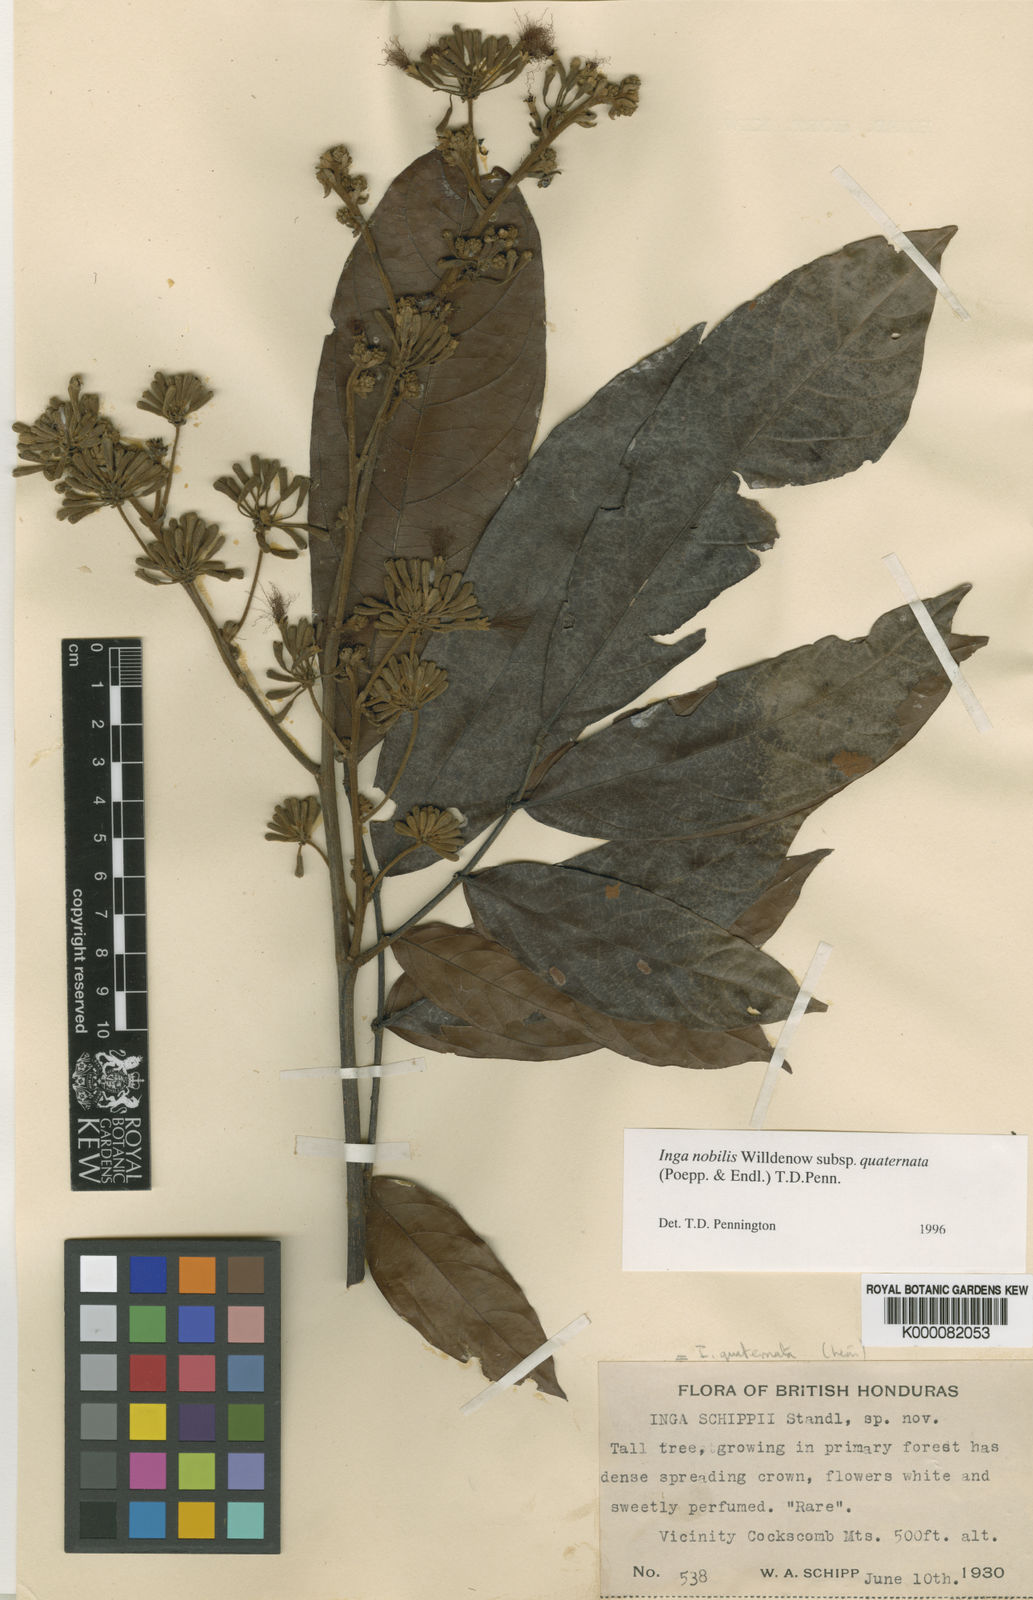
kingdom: Plantae
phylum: Tracheophyta
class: Magnoliopsida
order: Fabales
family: Fabaceae
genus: Inga
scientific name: Inga nobilis
